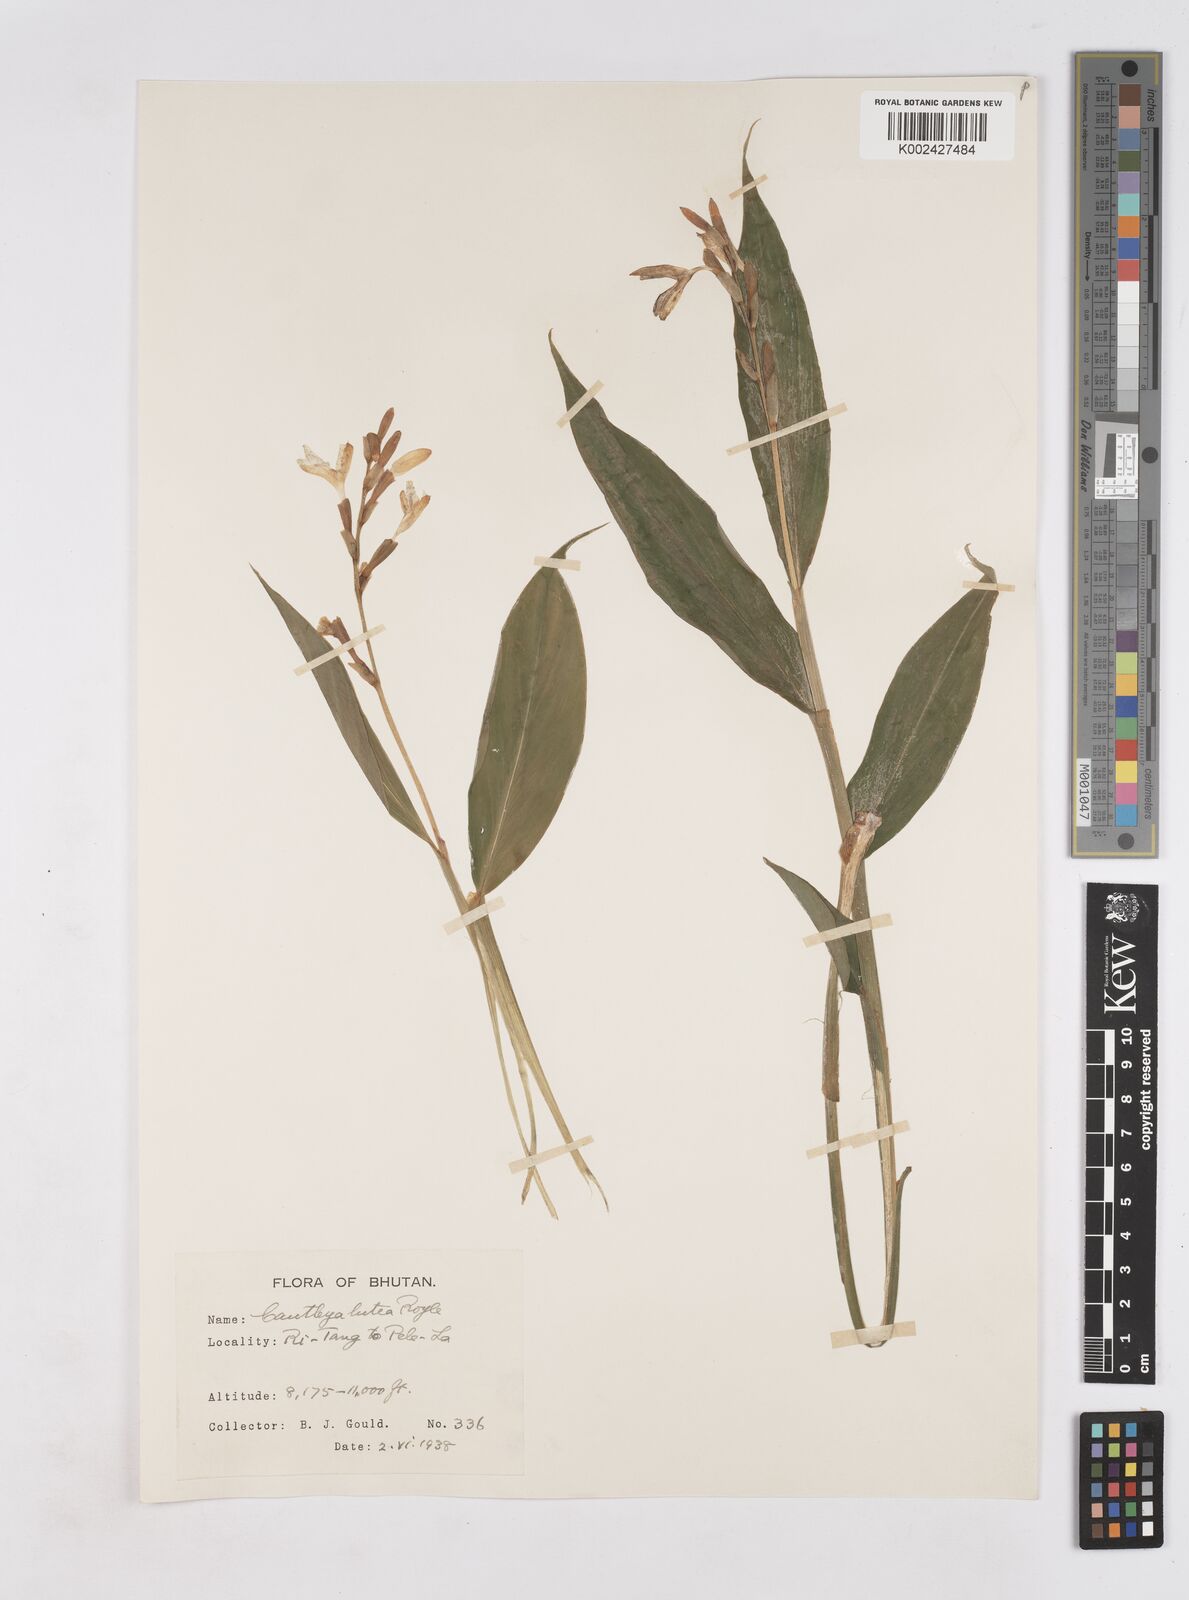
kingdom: Plantae
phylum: Tracheophyta
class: Liliopsida
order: Zingiberales
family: Zingiberaceae
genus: Cautleya
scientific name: Cautleya gracilis
